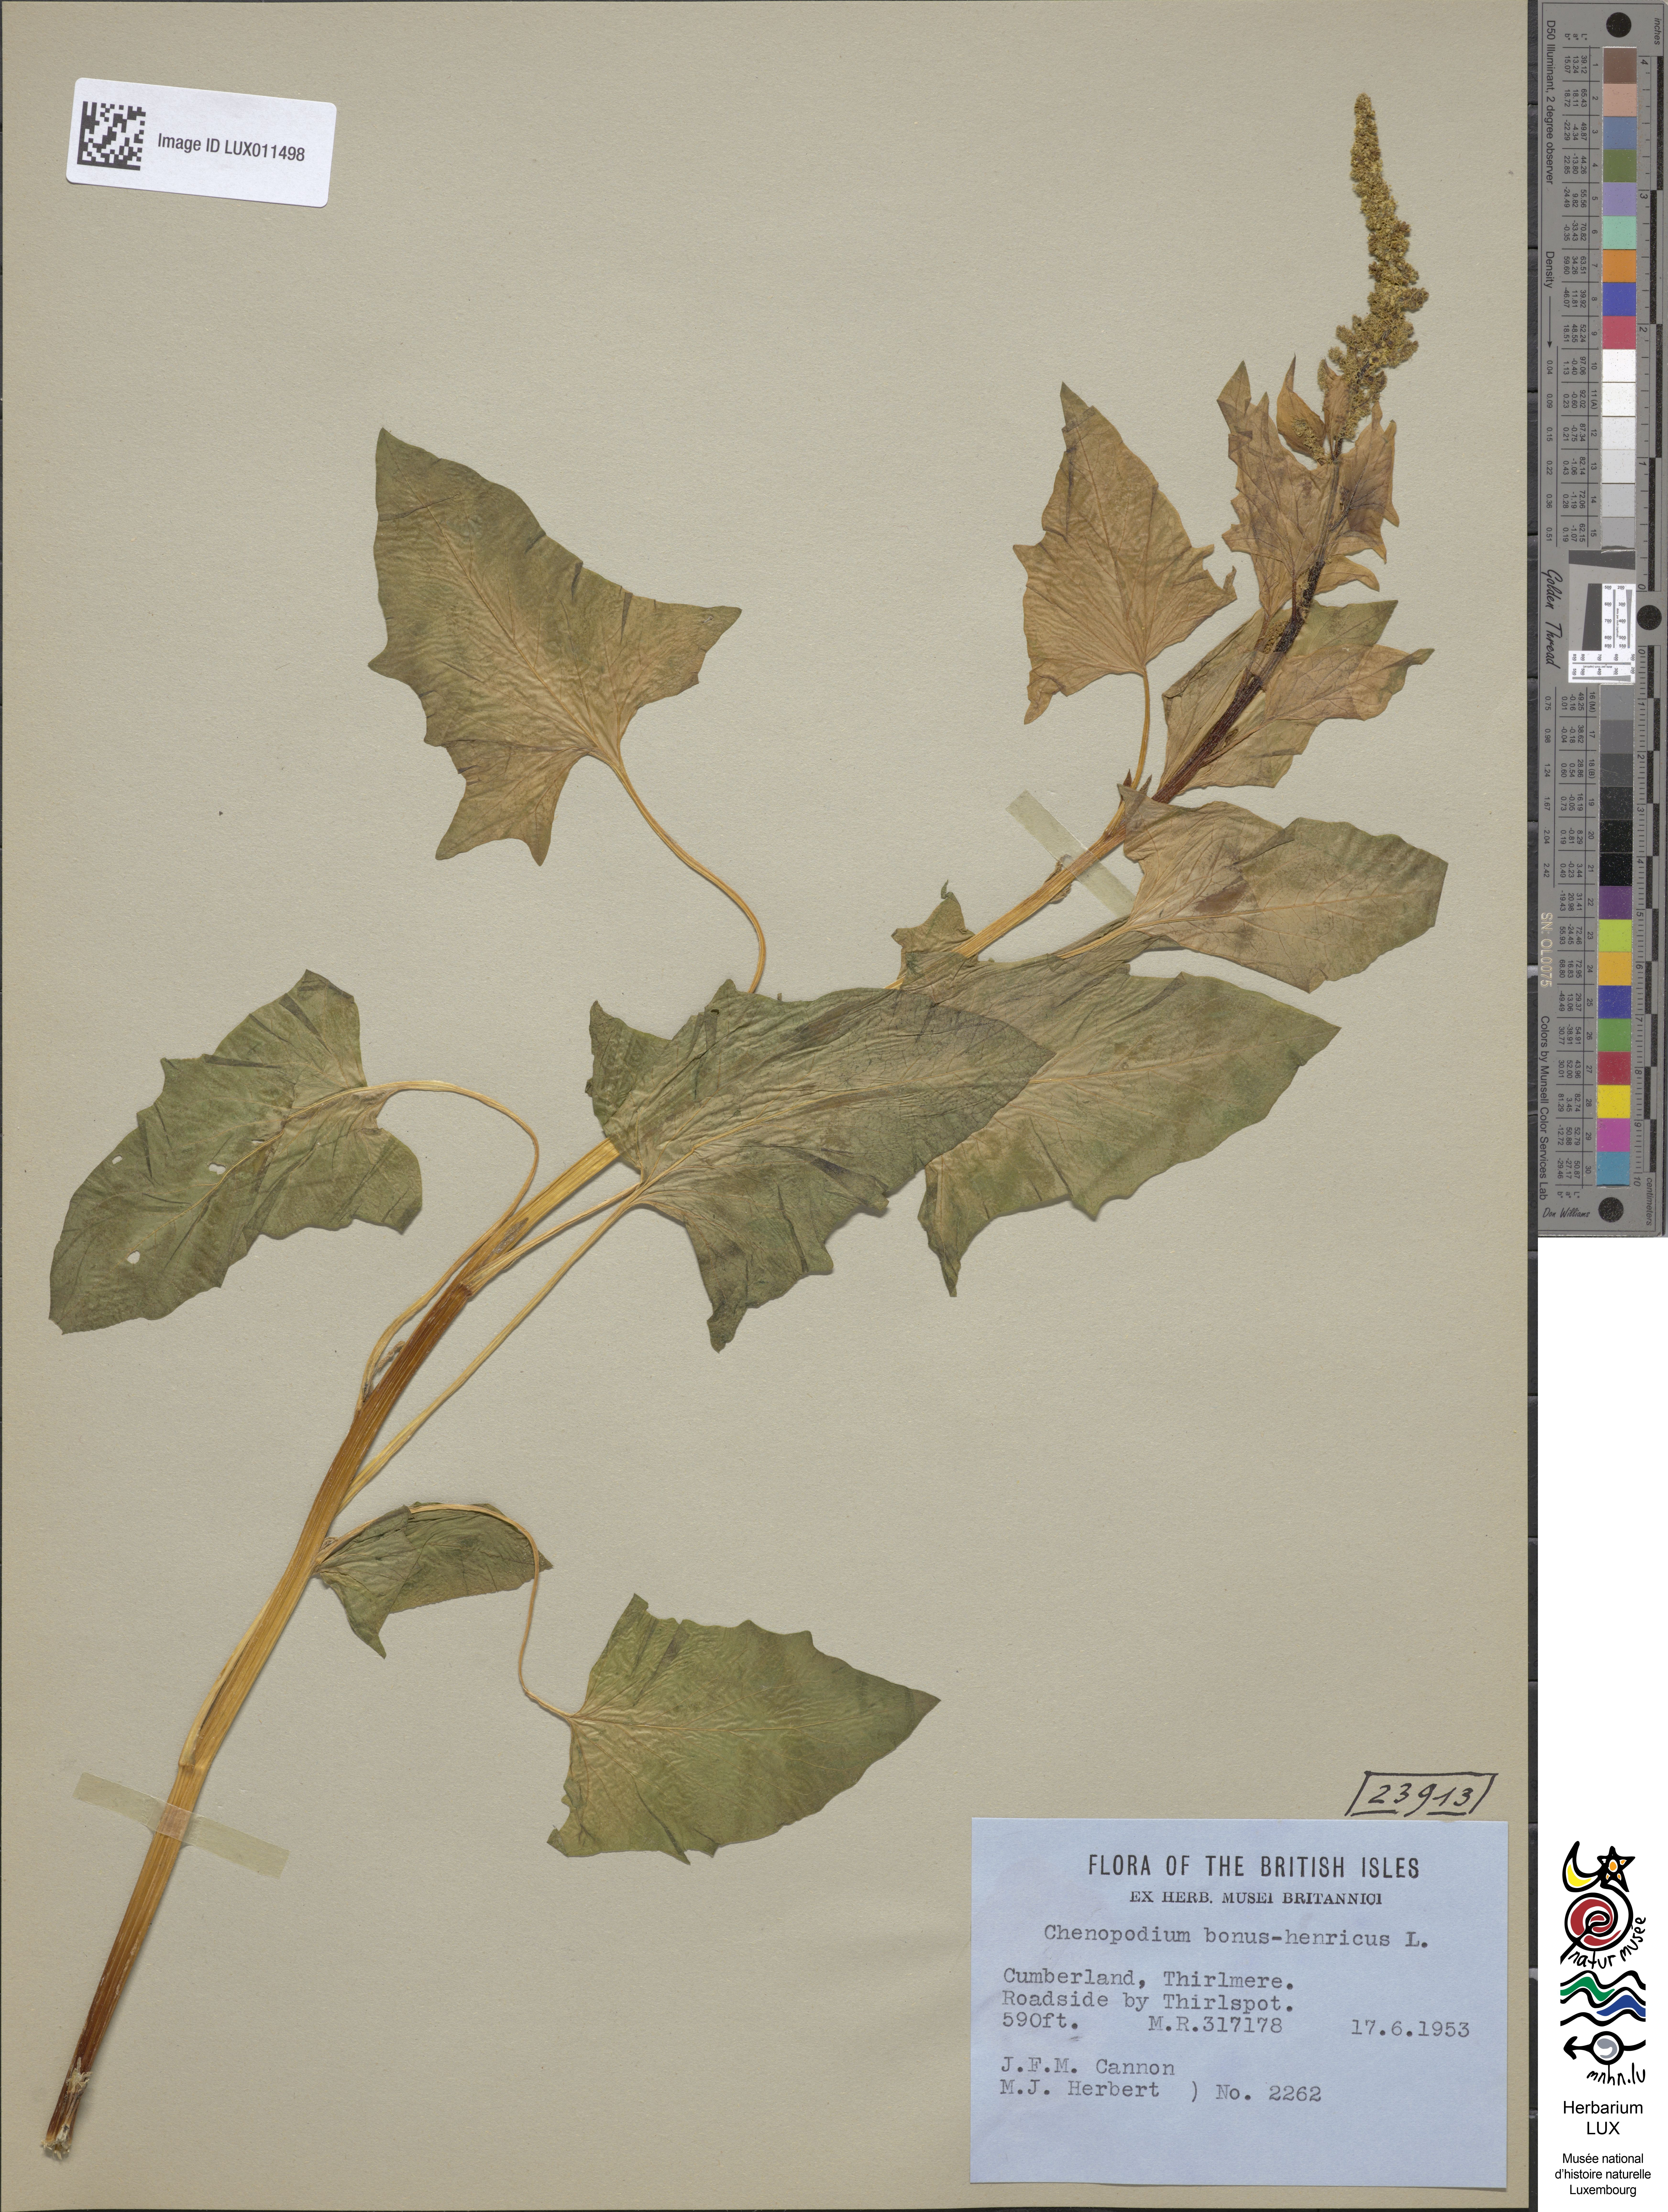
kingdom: Plantae
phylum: Tracheophyta
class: Magnoliopsida
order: Caryophyllales
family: Amaranthaceae
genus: Blitum
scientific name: Blitum bonus-henricus
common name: Good king henry
